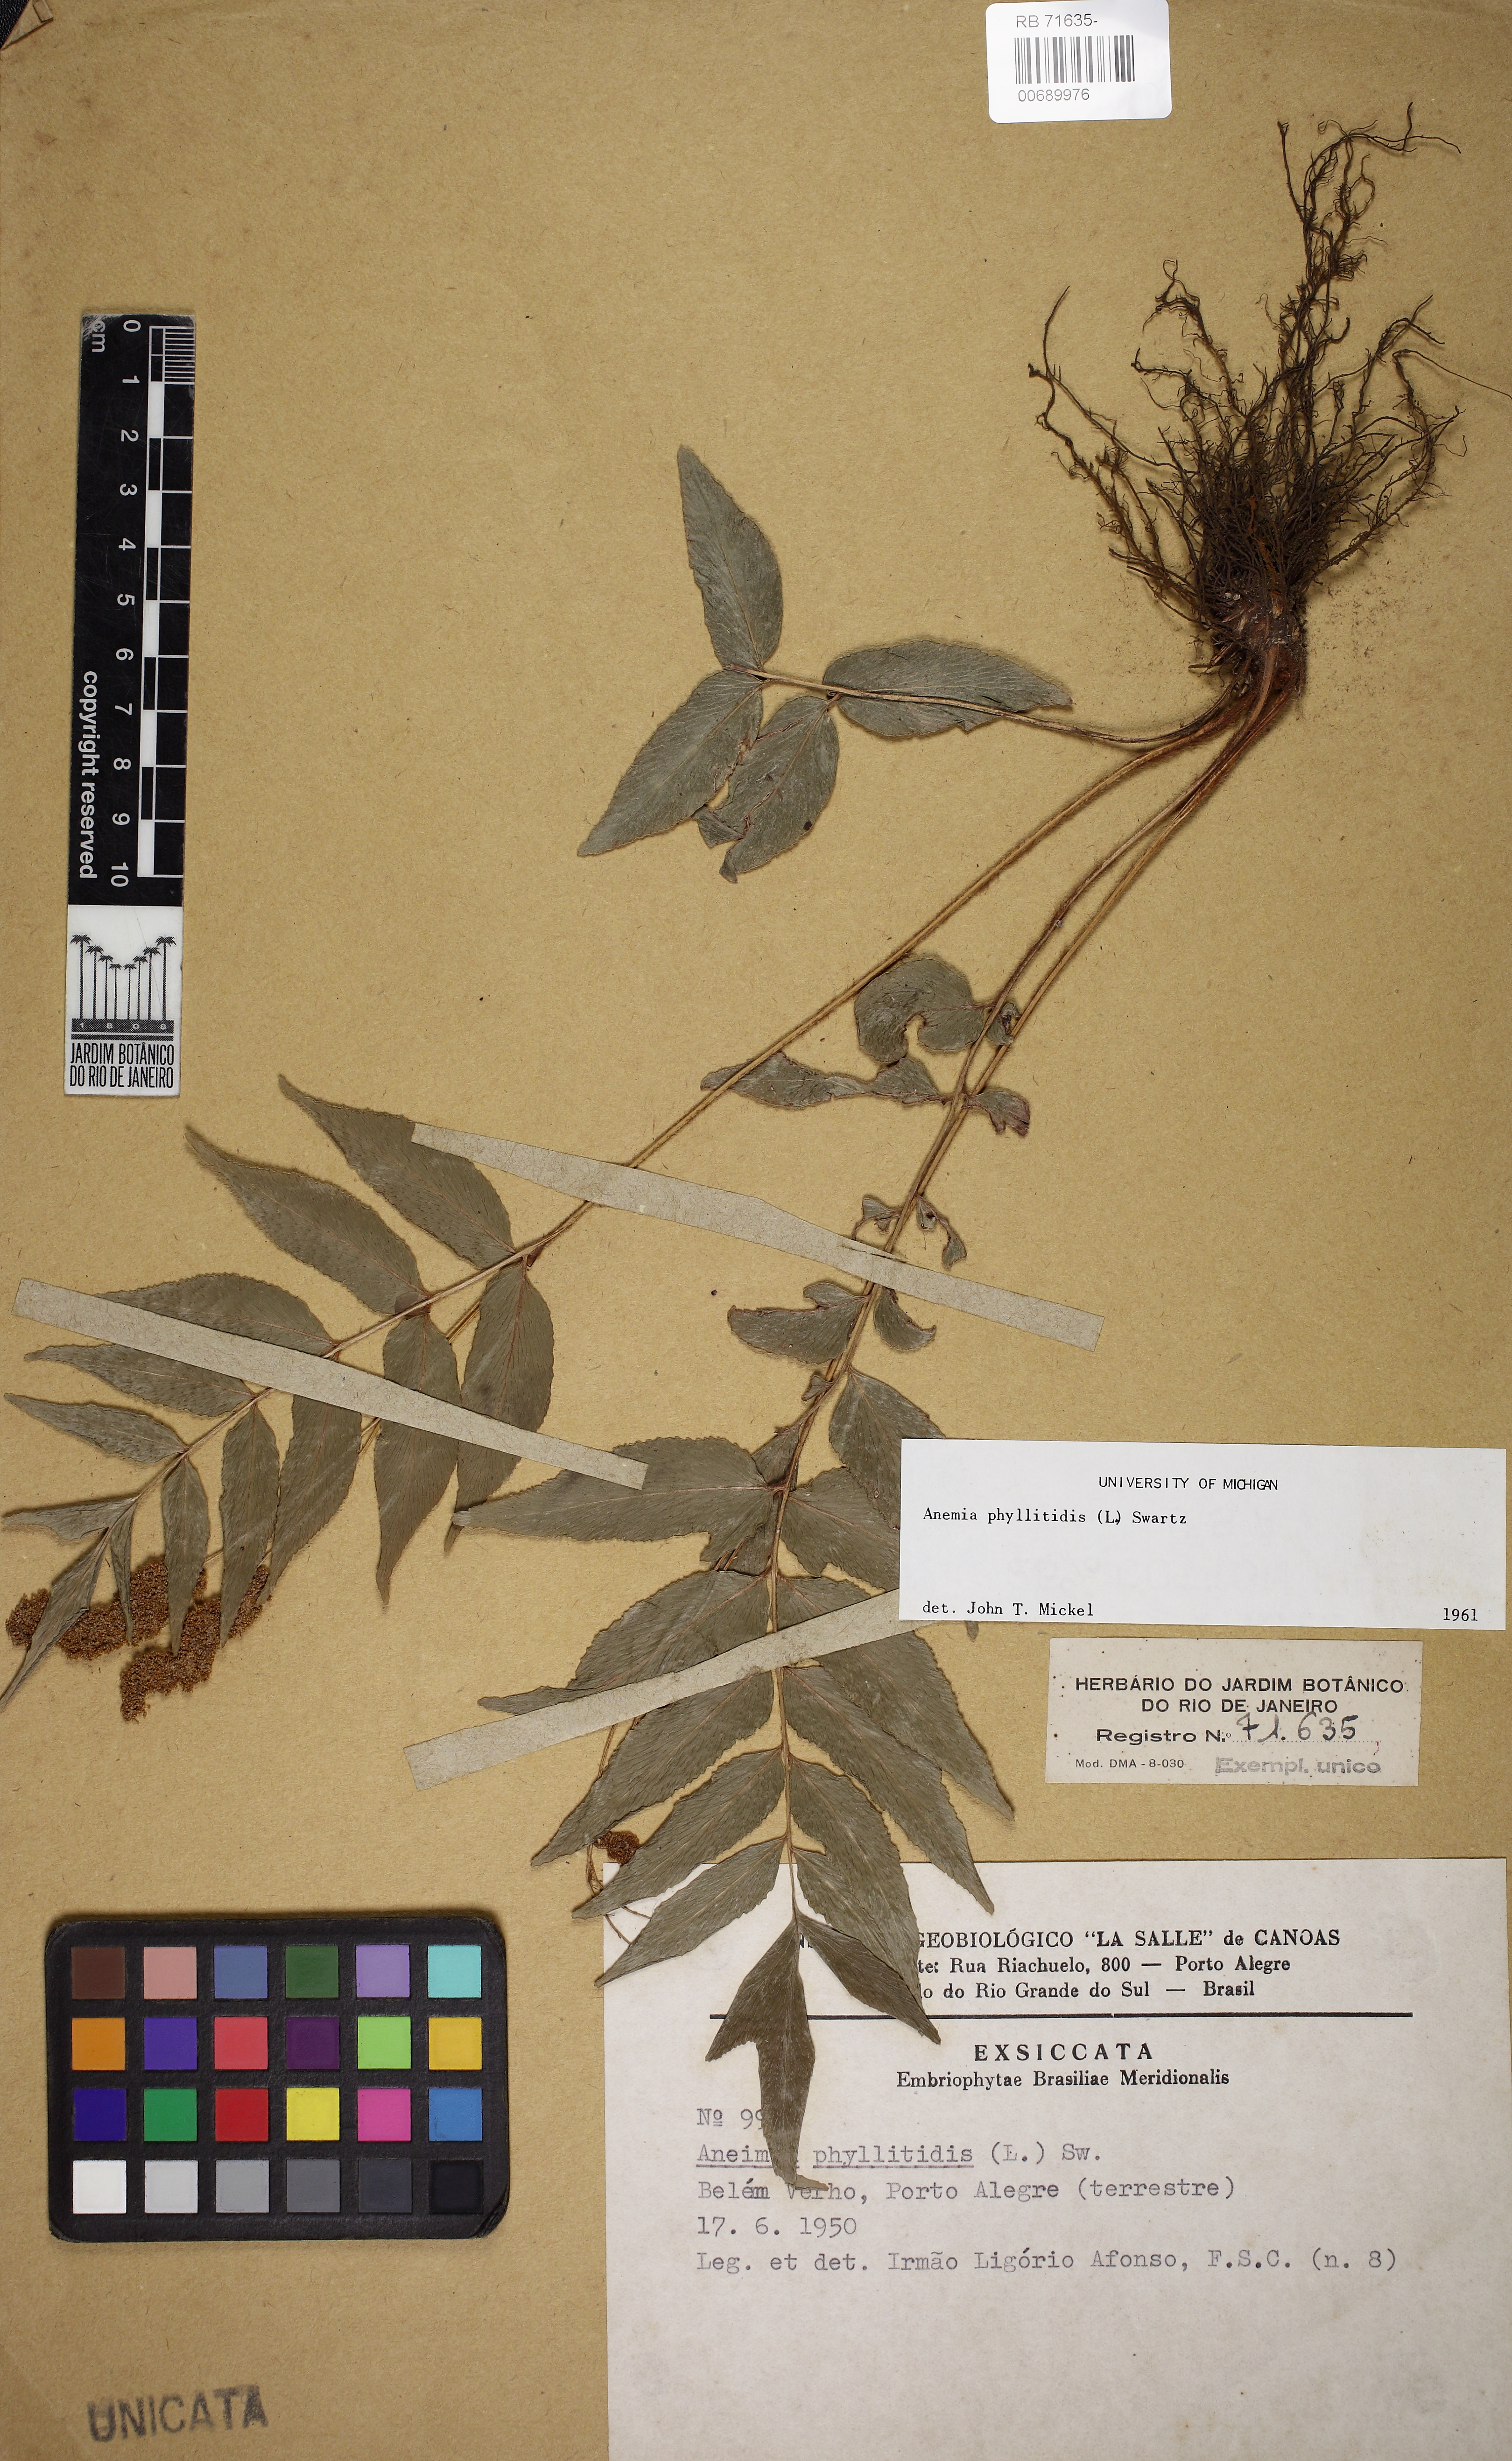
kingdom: Plantae
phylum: Tracheophyta
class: Polypodiopsida
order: Schizaeales
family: Anemiaceae
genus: Anemia
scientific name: Anemia phyllitidis
